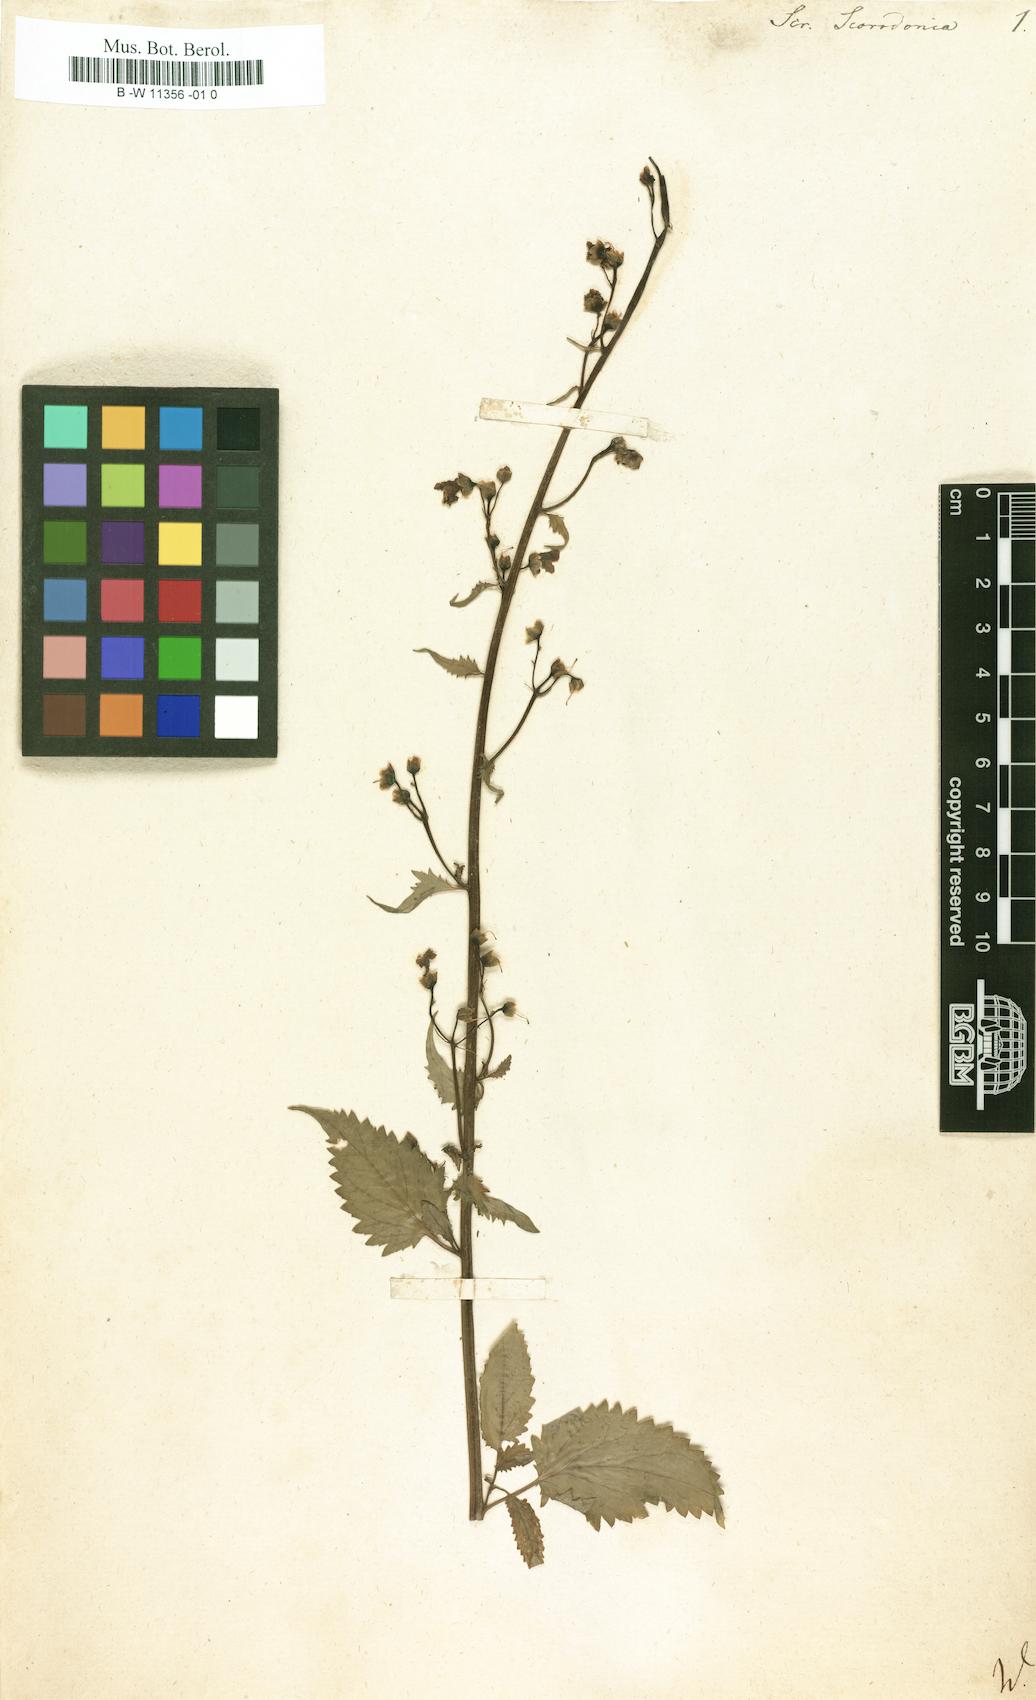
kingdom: Plantae
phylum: Tracheophyta
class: Magnoliopsida
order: Lamiales
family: Scrophulariaceae
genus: Scrophularia
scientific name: Scrophularia scorodonia
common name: Balm-leaved figwort
